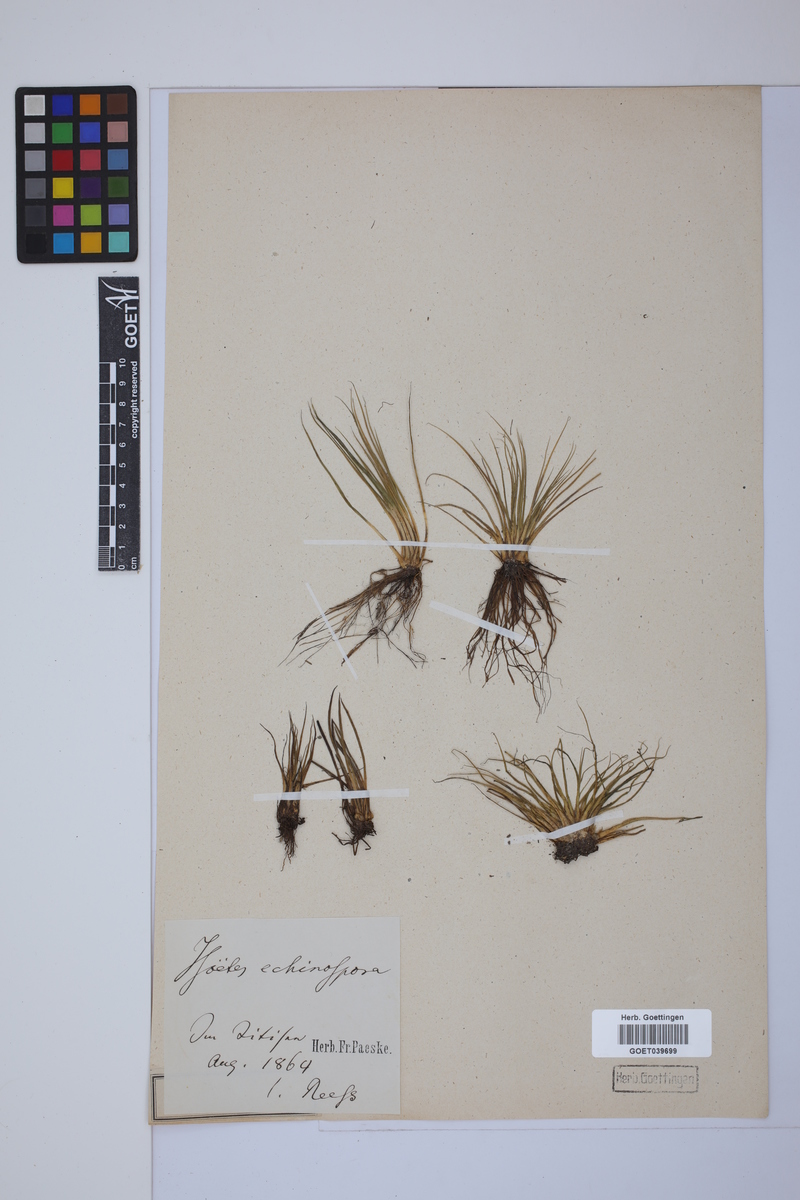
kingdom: Plantae
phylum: Tracheophyta
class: Lycopodiopsida
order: Isoetales
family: Isoetaceae
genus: Isoetes
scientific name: Isoetes echinospora
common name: Spring quillwort
